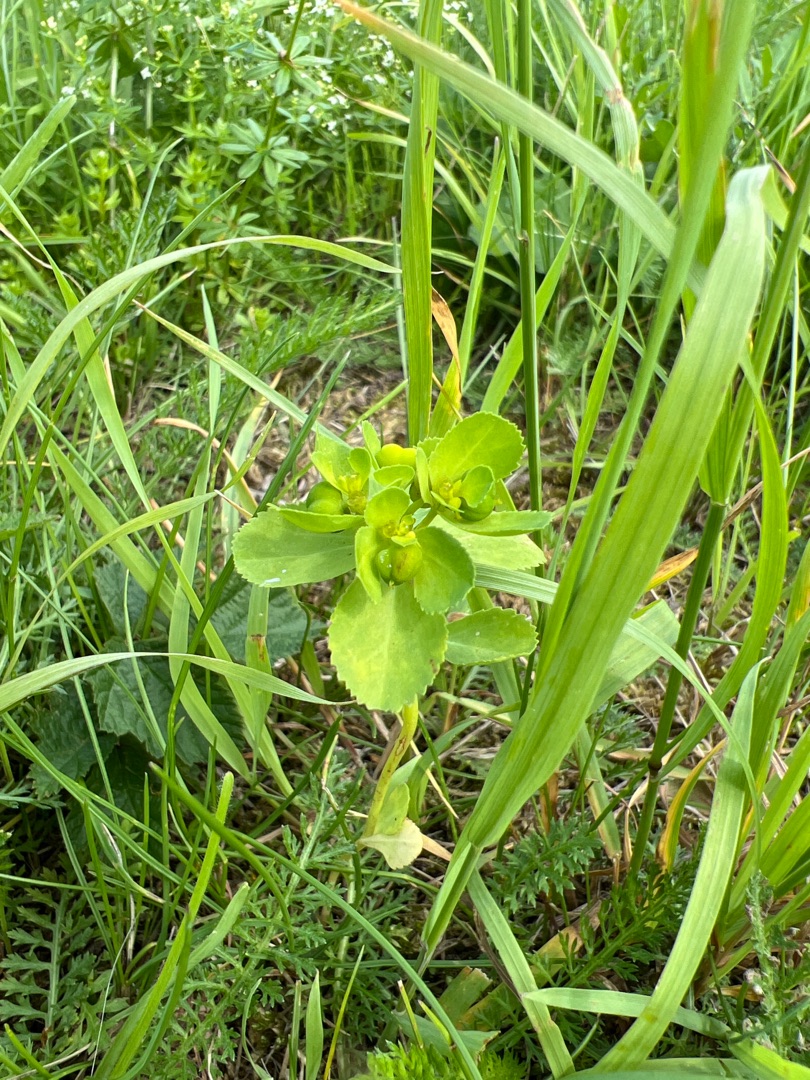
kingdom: Plantae
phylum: Tracheophyta
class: Magnoliopsida
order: Malpighiales
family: Euphorbiaceae
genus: Euphorbia
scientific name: Euphorbia helioscopia
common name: Skærm-vortemælk
